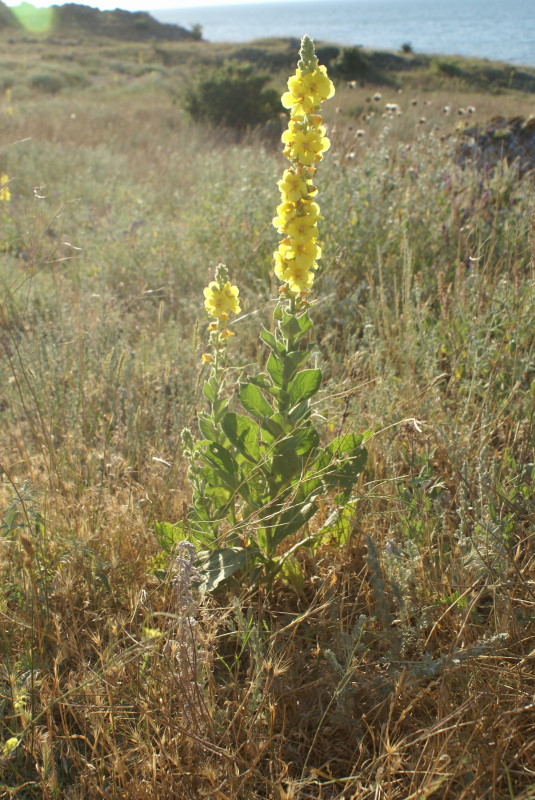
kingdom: Plantae
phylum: Tracheophyta
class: Magnoliopsida
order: Lamiales
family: Scrophulariaceae
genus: Verbascum
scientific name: Verbascum
